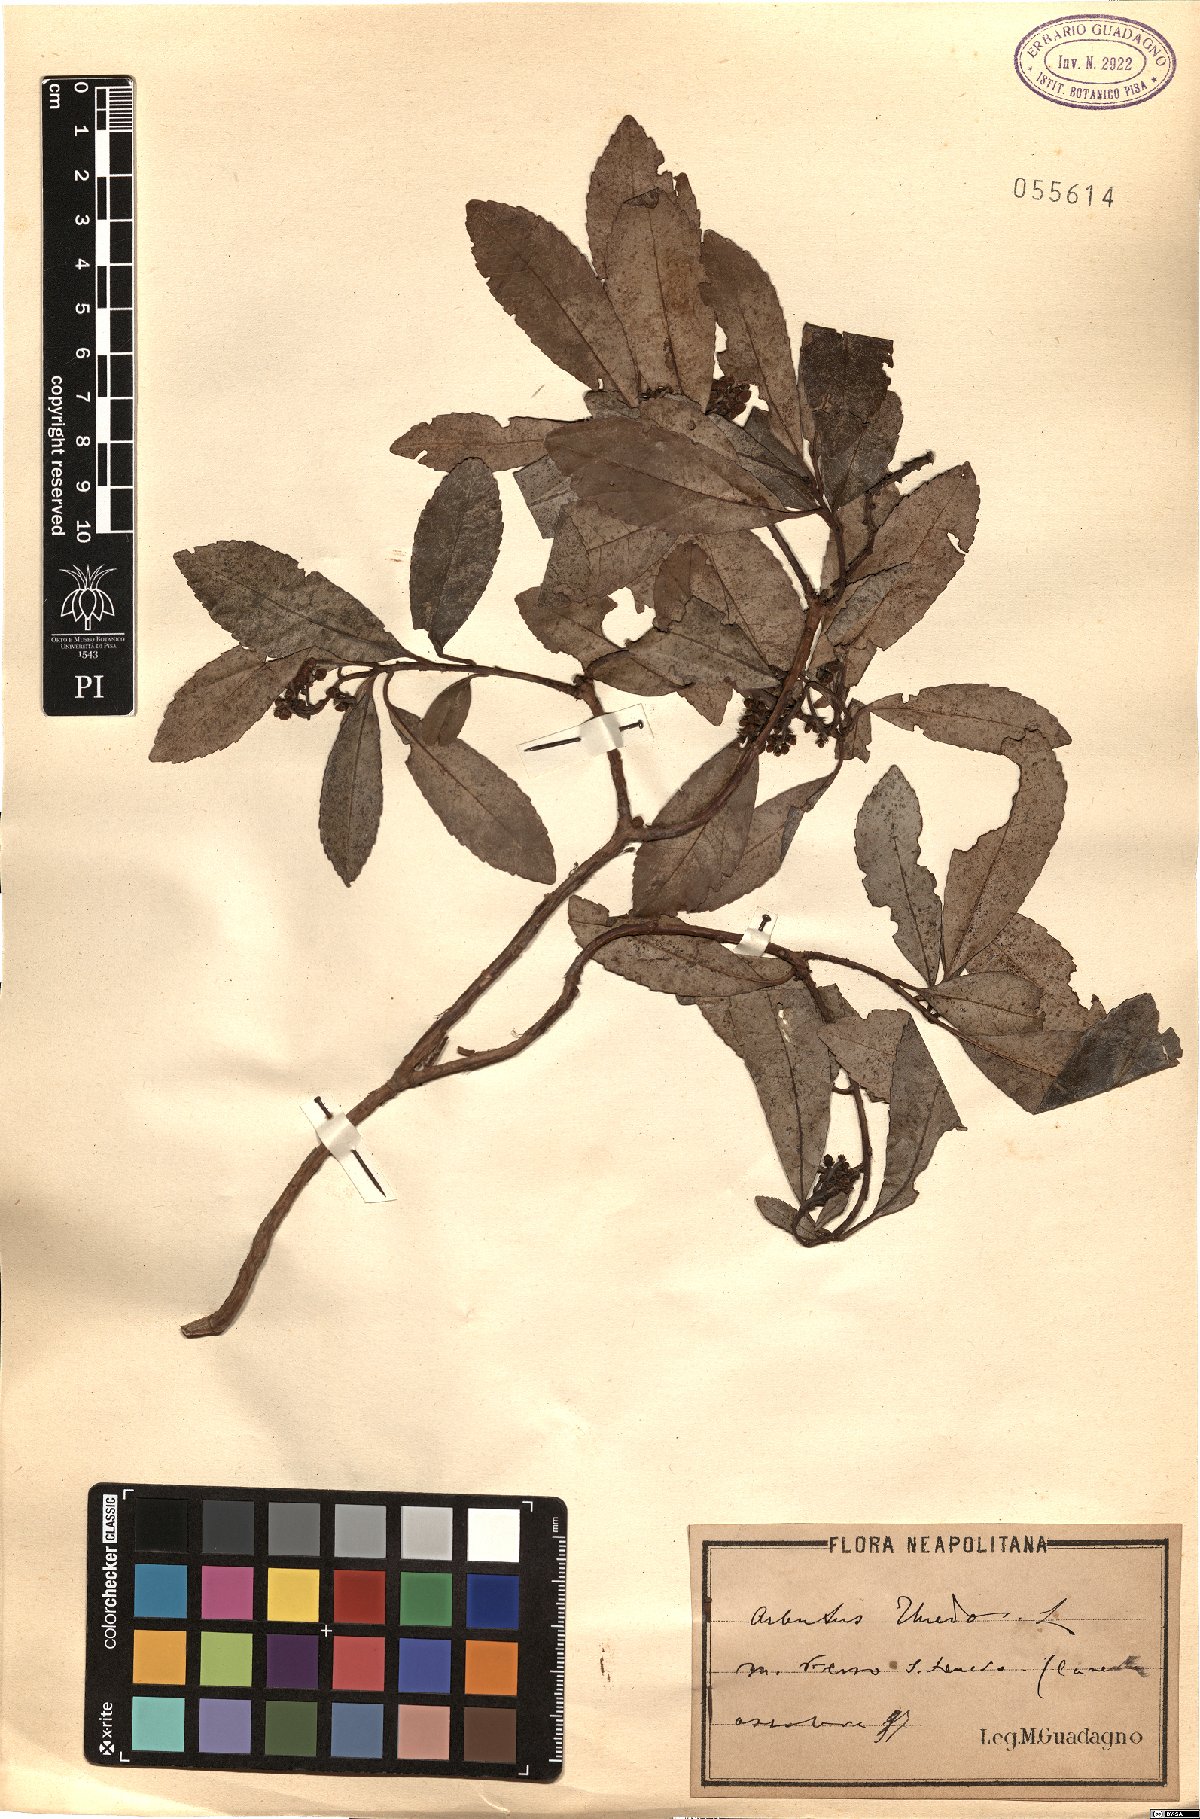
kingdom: Plantae
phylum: Tracheophyta
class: Magnoliopsida
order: Ericales
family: Ericaceae
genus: Arbutus
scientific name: Arbutus unedo
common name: Strawberry-tree
